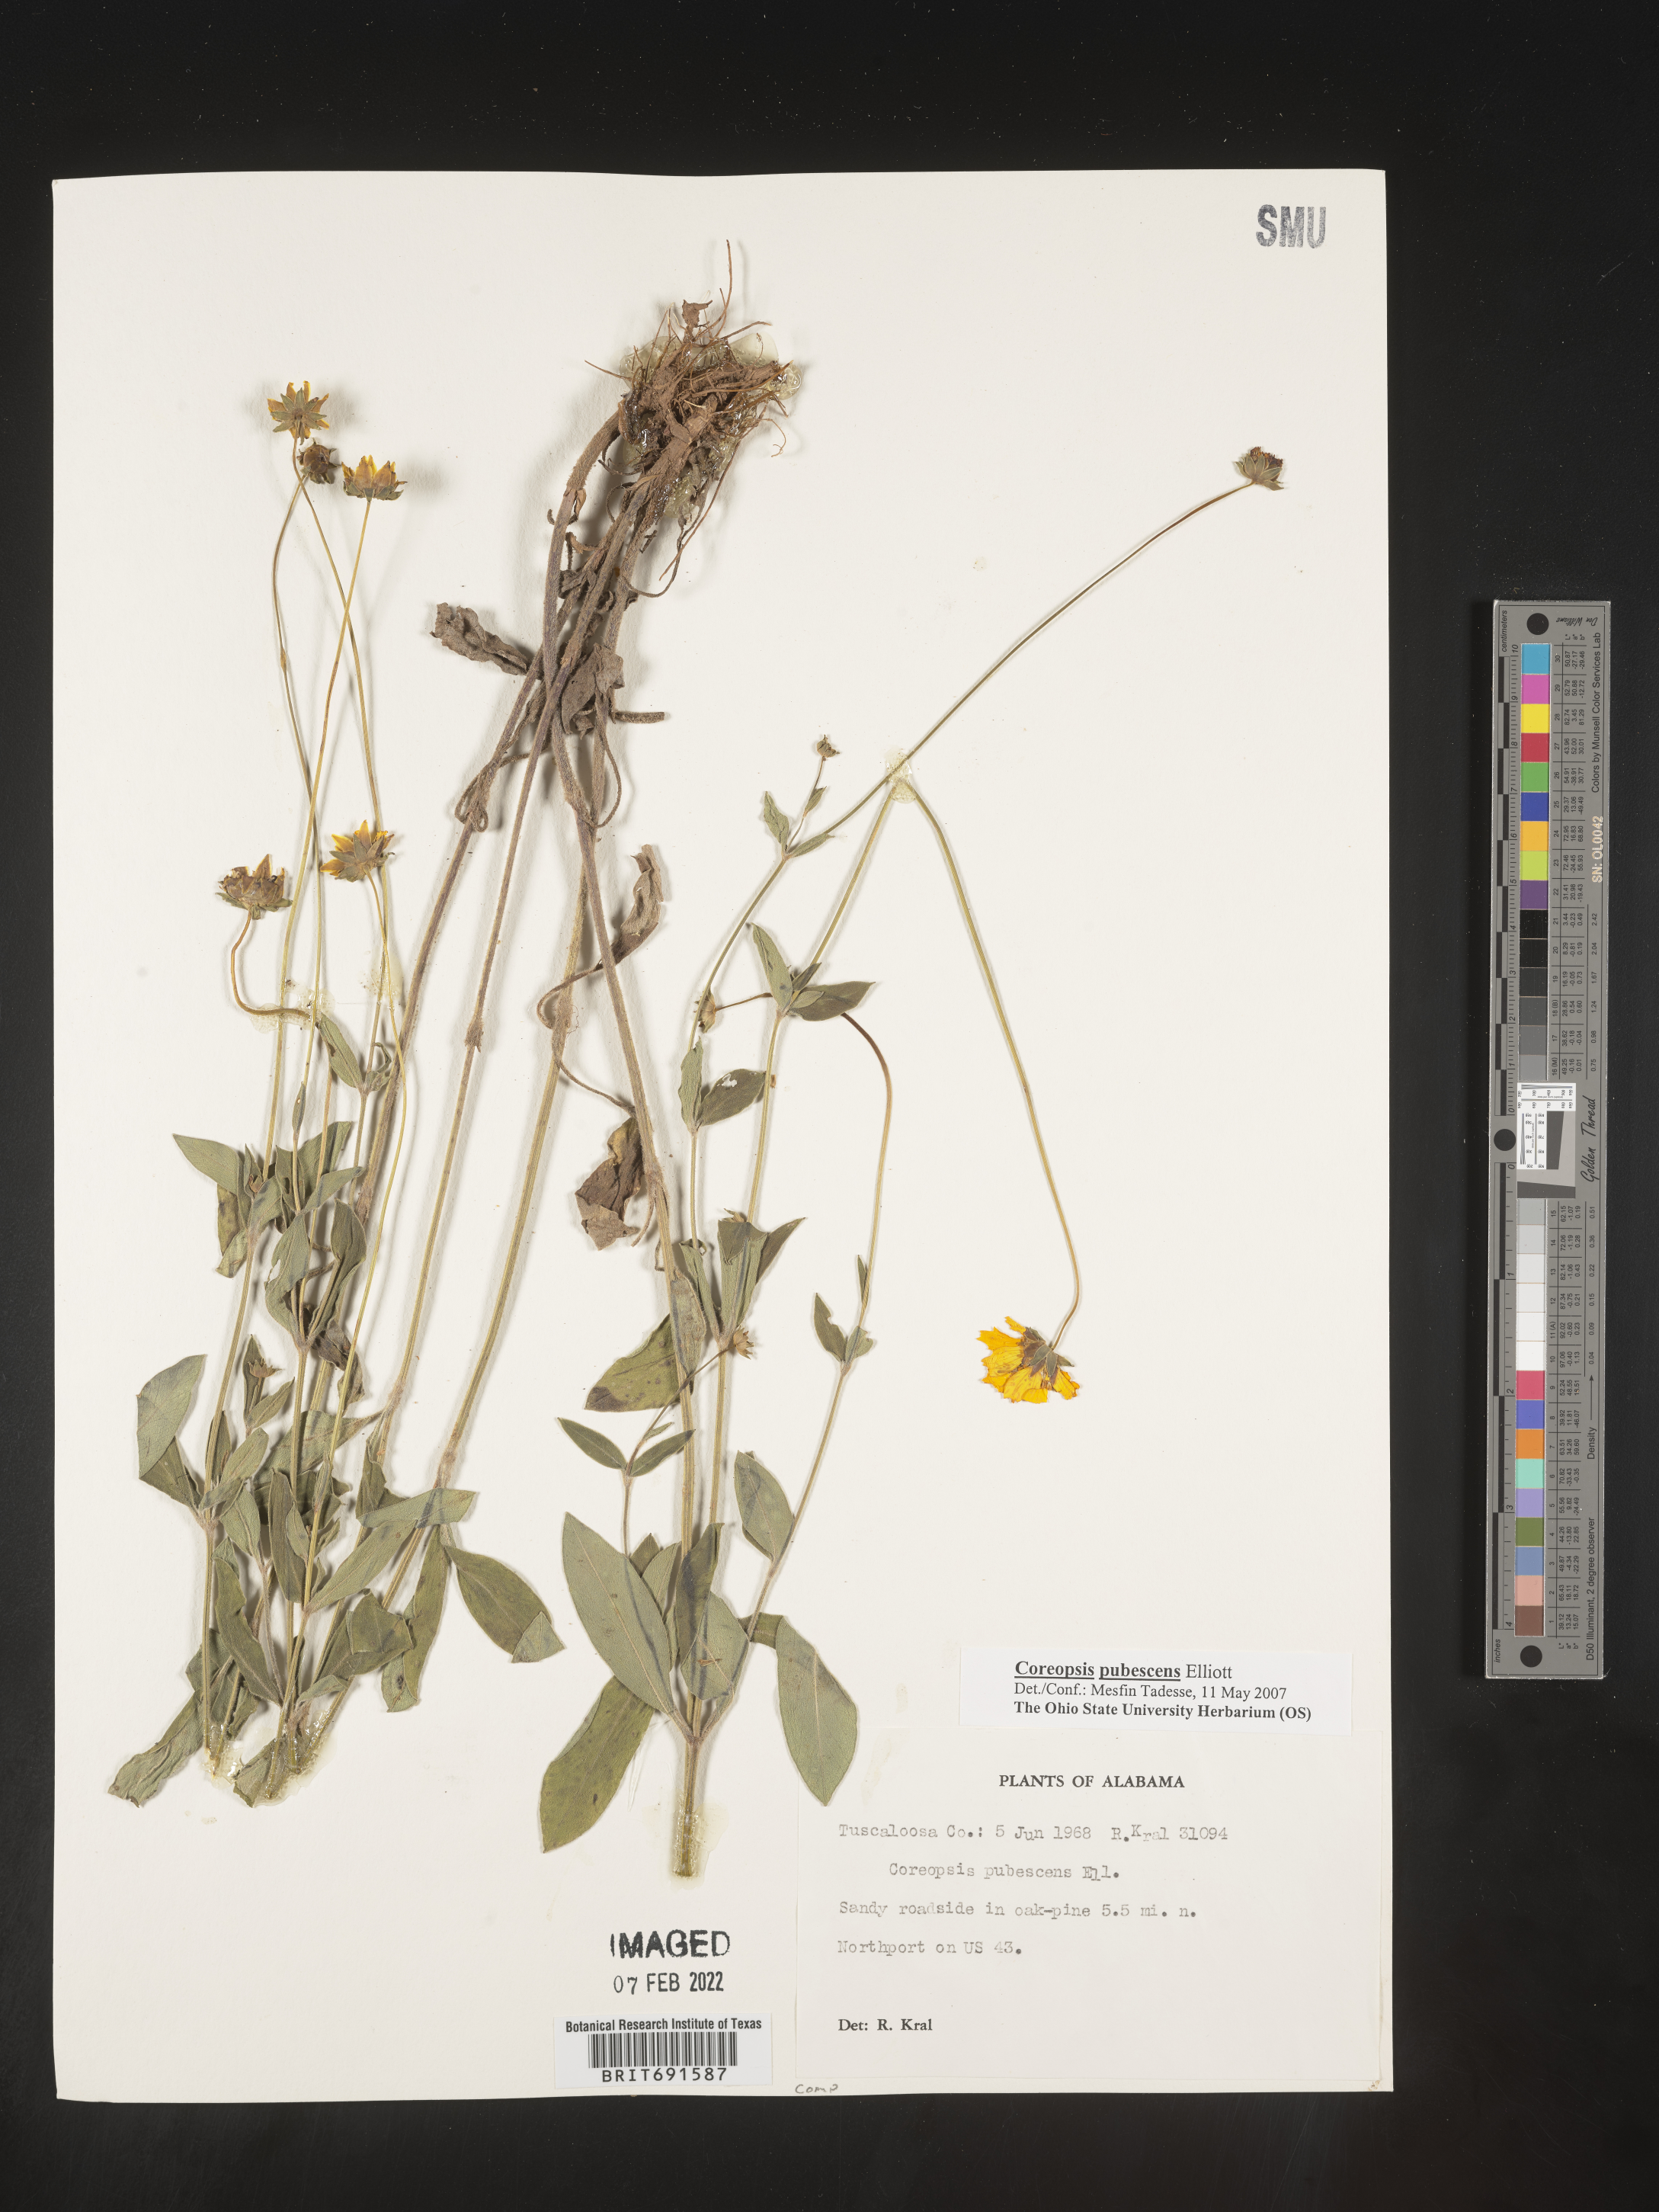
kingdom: Plantae
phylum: Tracheophyta
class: Magnoliopsida
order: Asterales
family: Asteraceae
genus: Coreopsis
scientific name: Coreopsis pubescens
